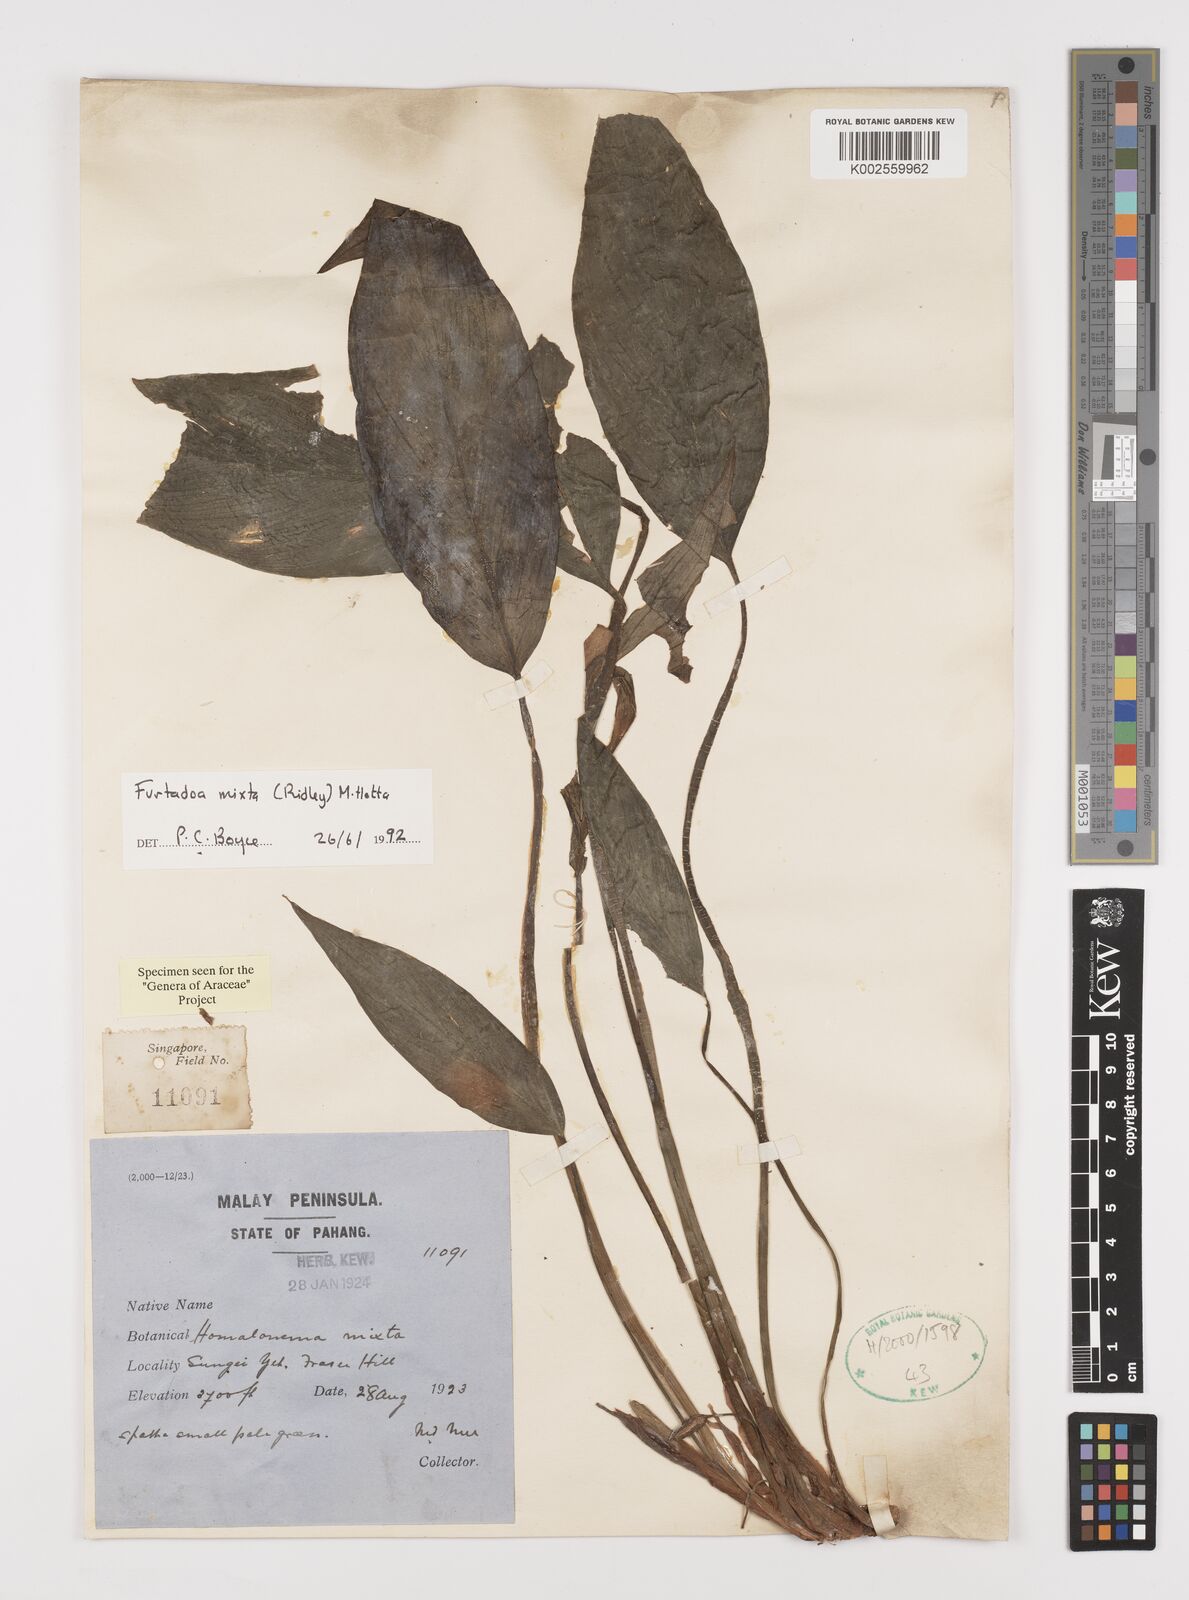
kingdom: Plantae
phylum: Tracheophyta
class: Liliopsida
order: Alismatales
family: Araceae
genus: Furtadoa
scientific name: Furtadoa mixta
